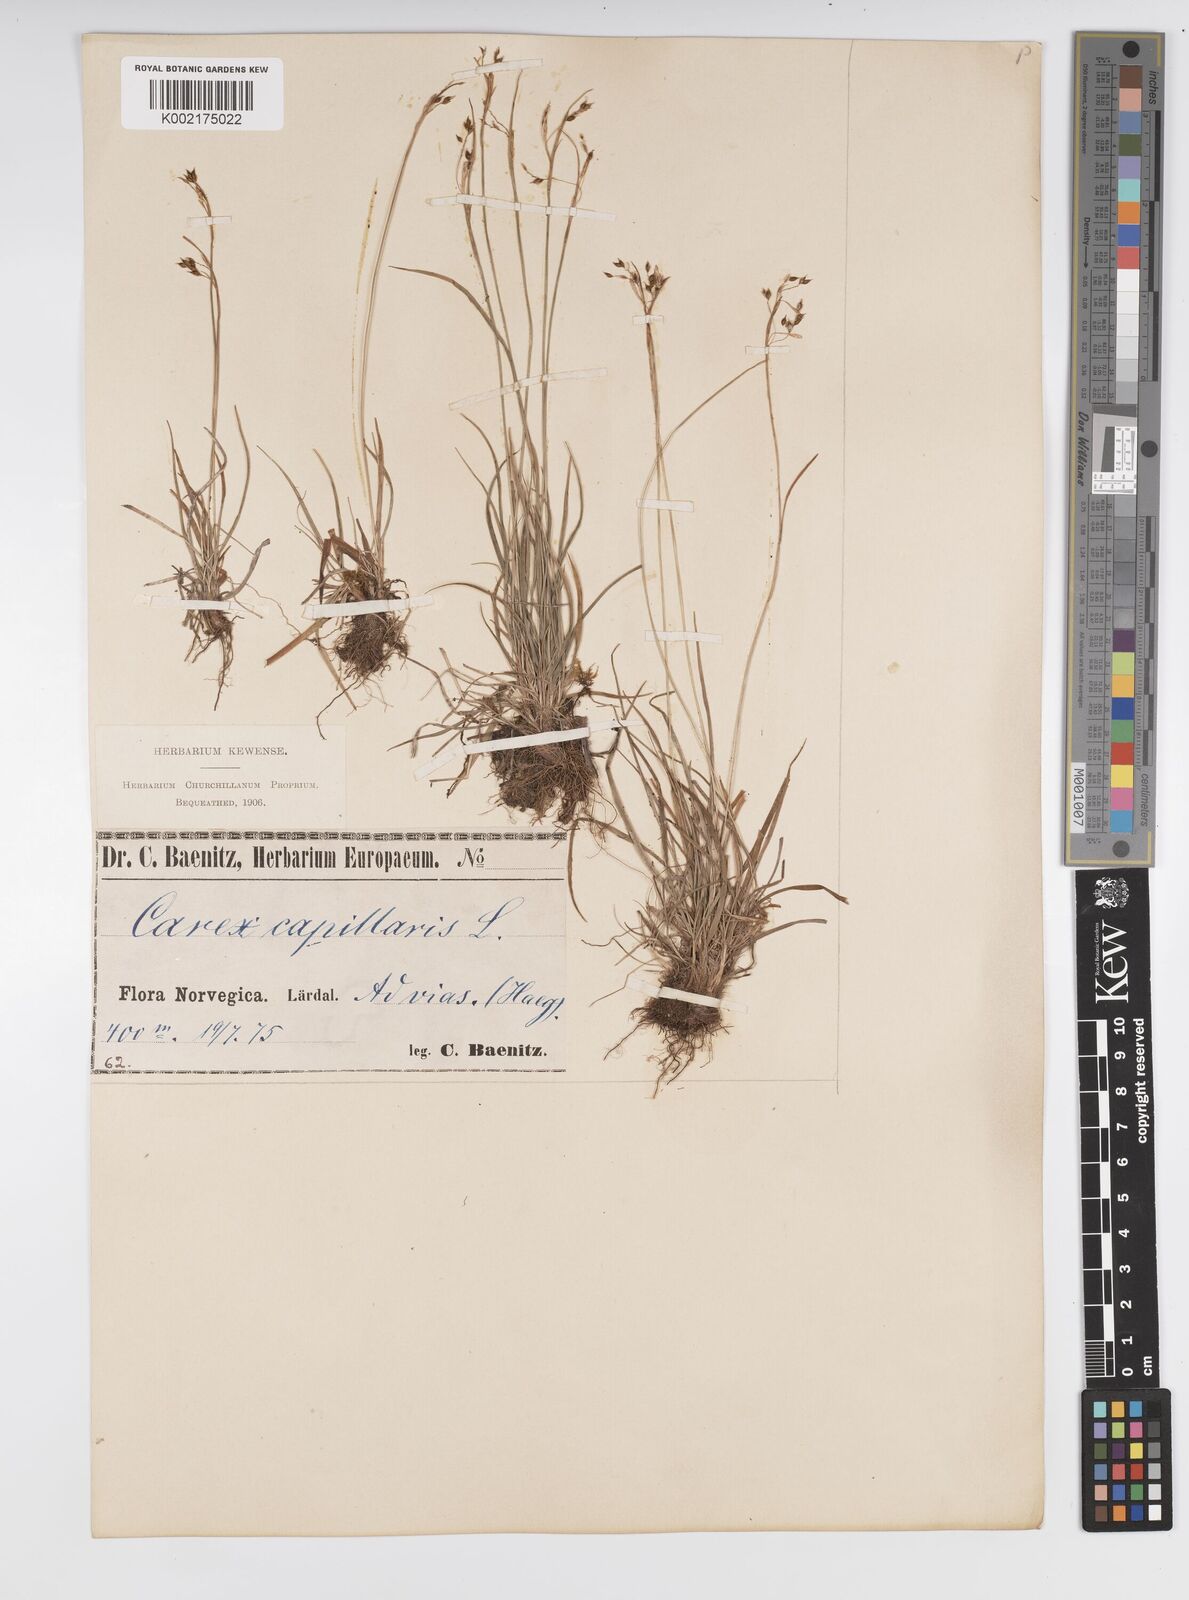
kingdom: Plantae
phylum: Tracheophyta
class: Liliopsida
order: Poales
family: Cyperaceae
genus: Carex
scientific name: Carex capillaris
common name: Hair sedge
